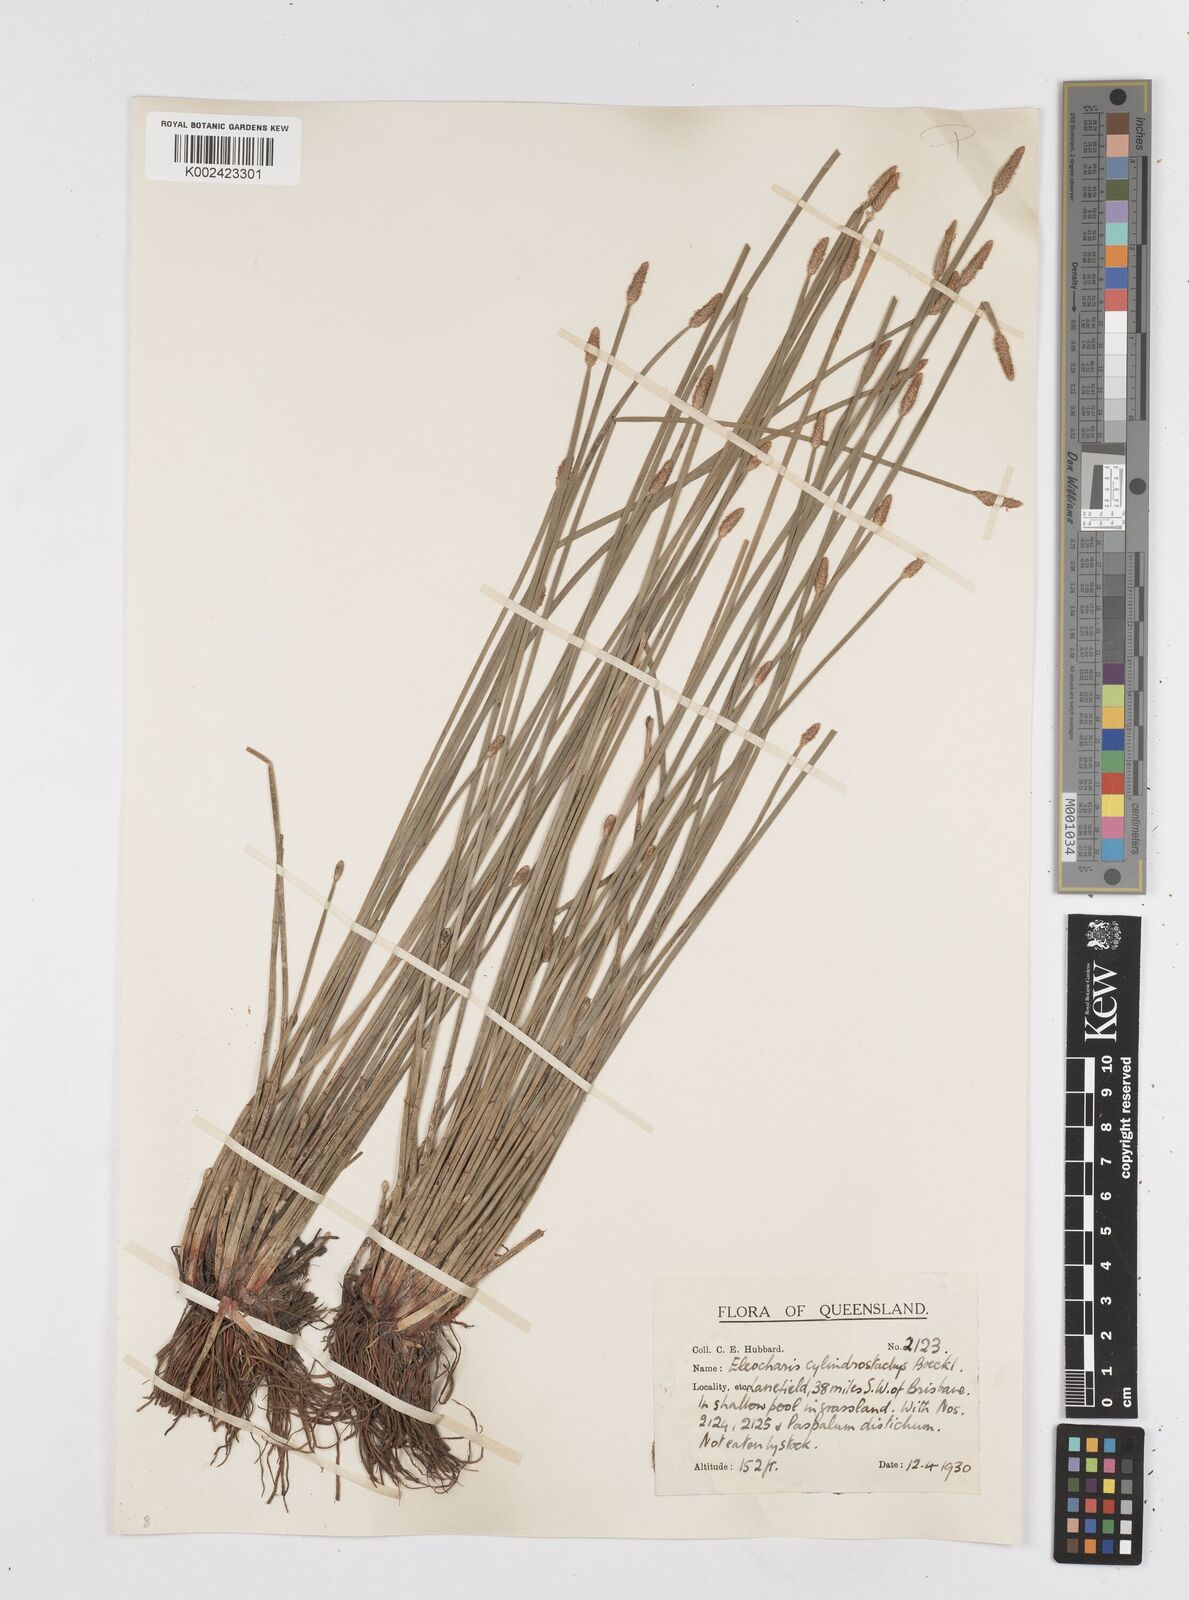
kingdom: Plantae
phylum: Tracheophyta
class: Liliopsida
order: Poales
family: Cyperaceae
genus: Eleocharis
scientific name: Eleocharis cylindrostachys
